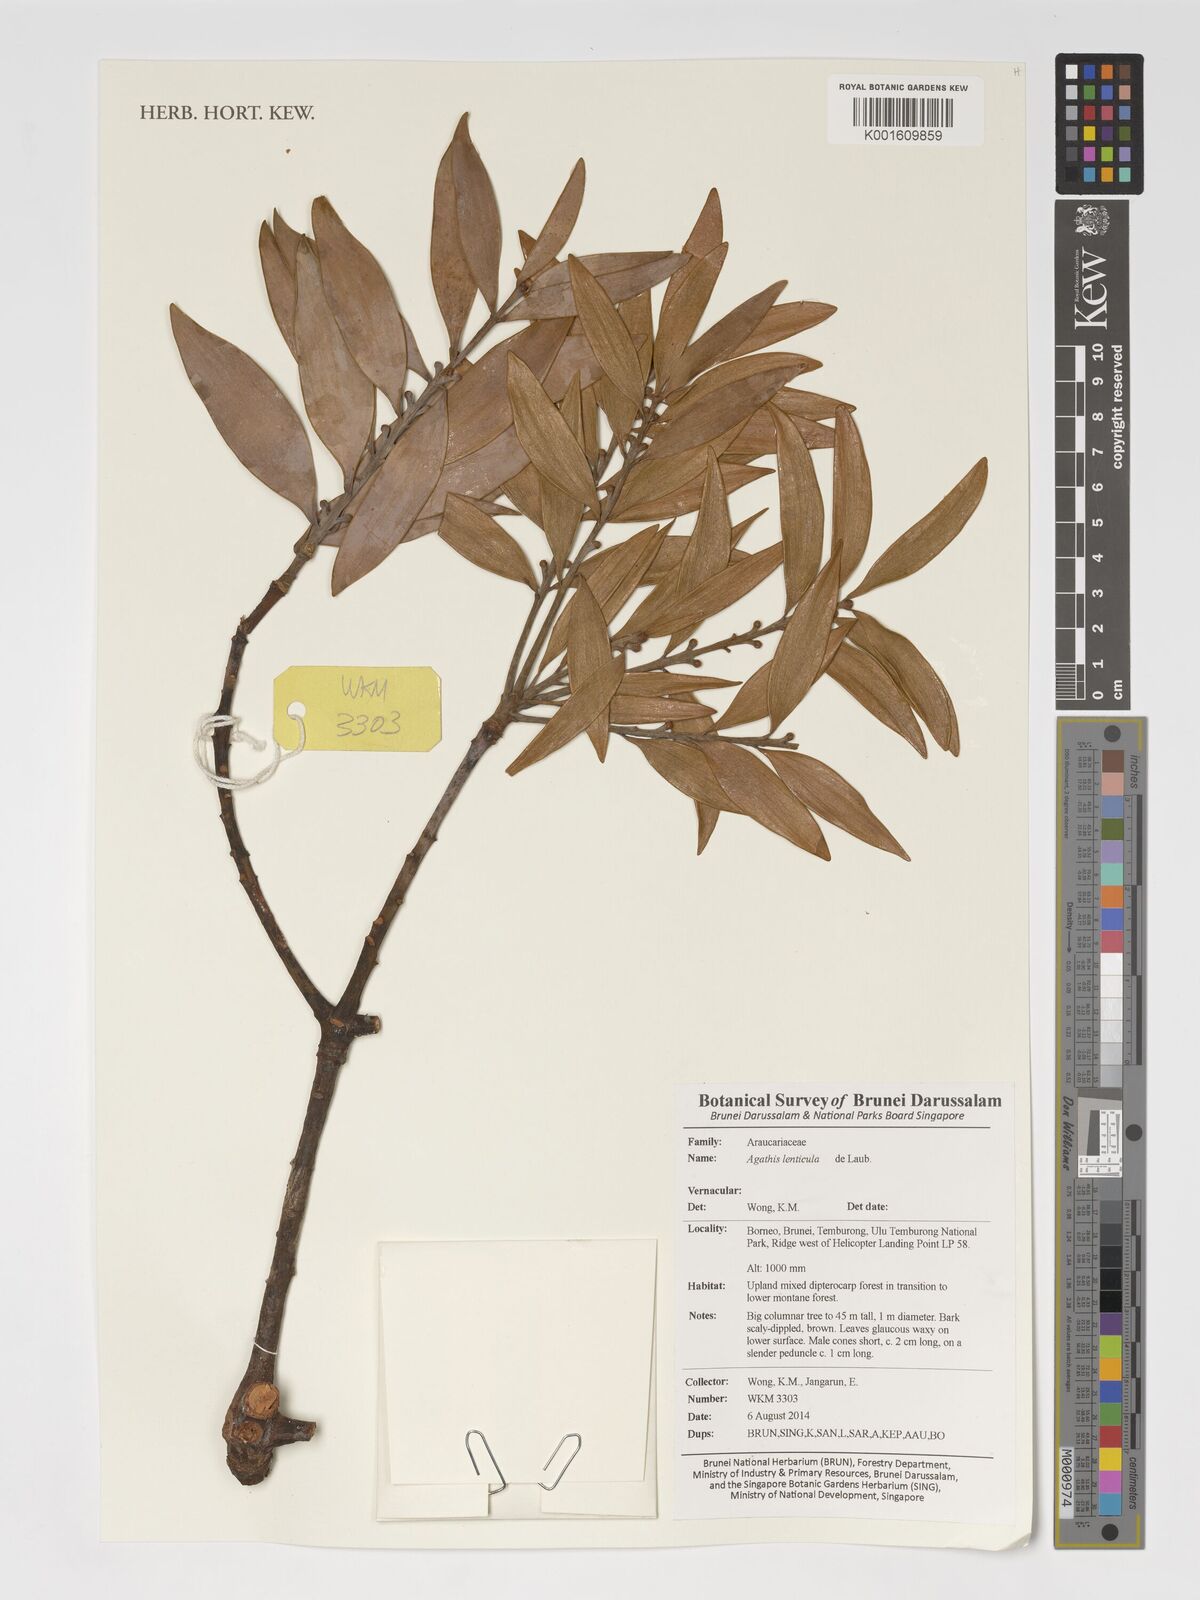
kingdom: Plantae
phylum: Tracheophyta
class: Pinopsida
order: Pinales
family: Araucariaceae
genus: Agathis
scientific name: Agathis lenticula
